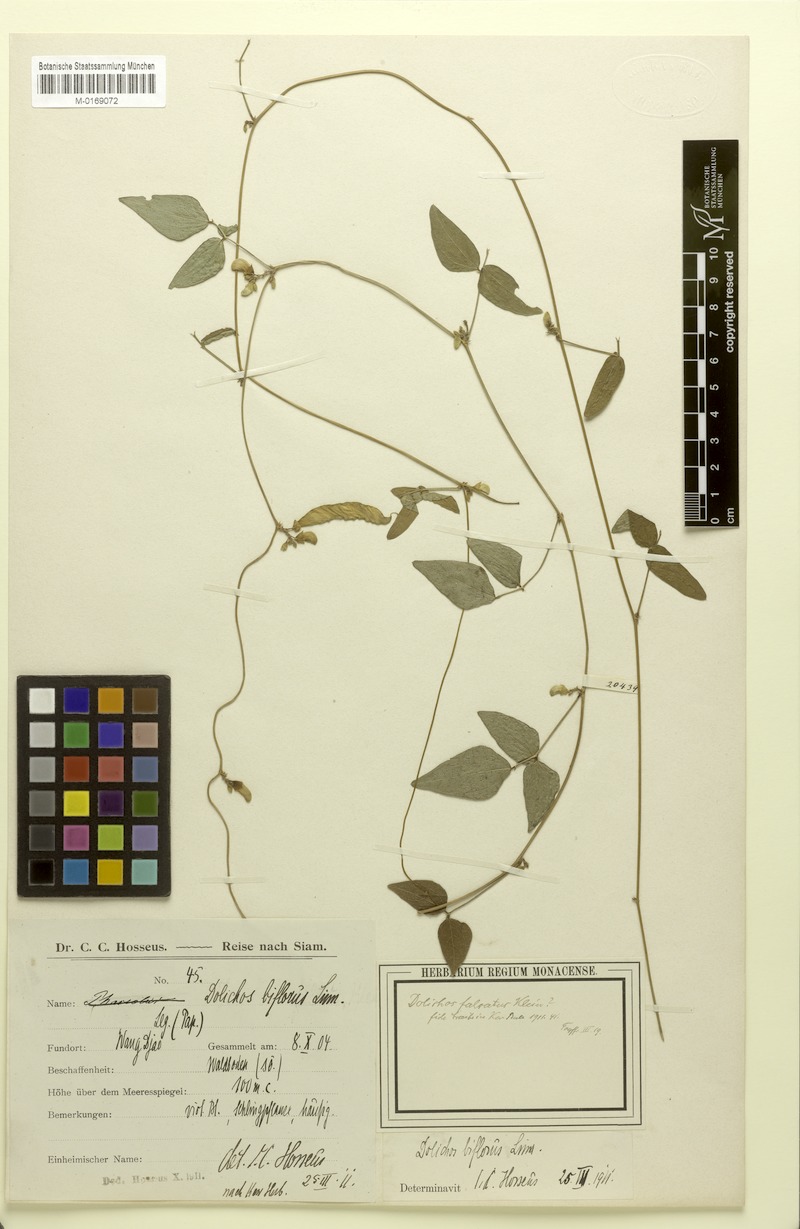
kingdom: Plantae
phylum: Tracheophyta
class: Magnoliopsida
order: Fabales
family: Fabaceae
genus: Dolichos
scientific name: Dolichos trilobus
